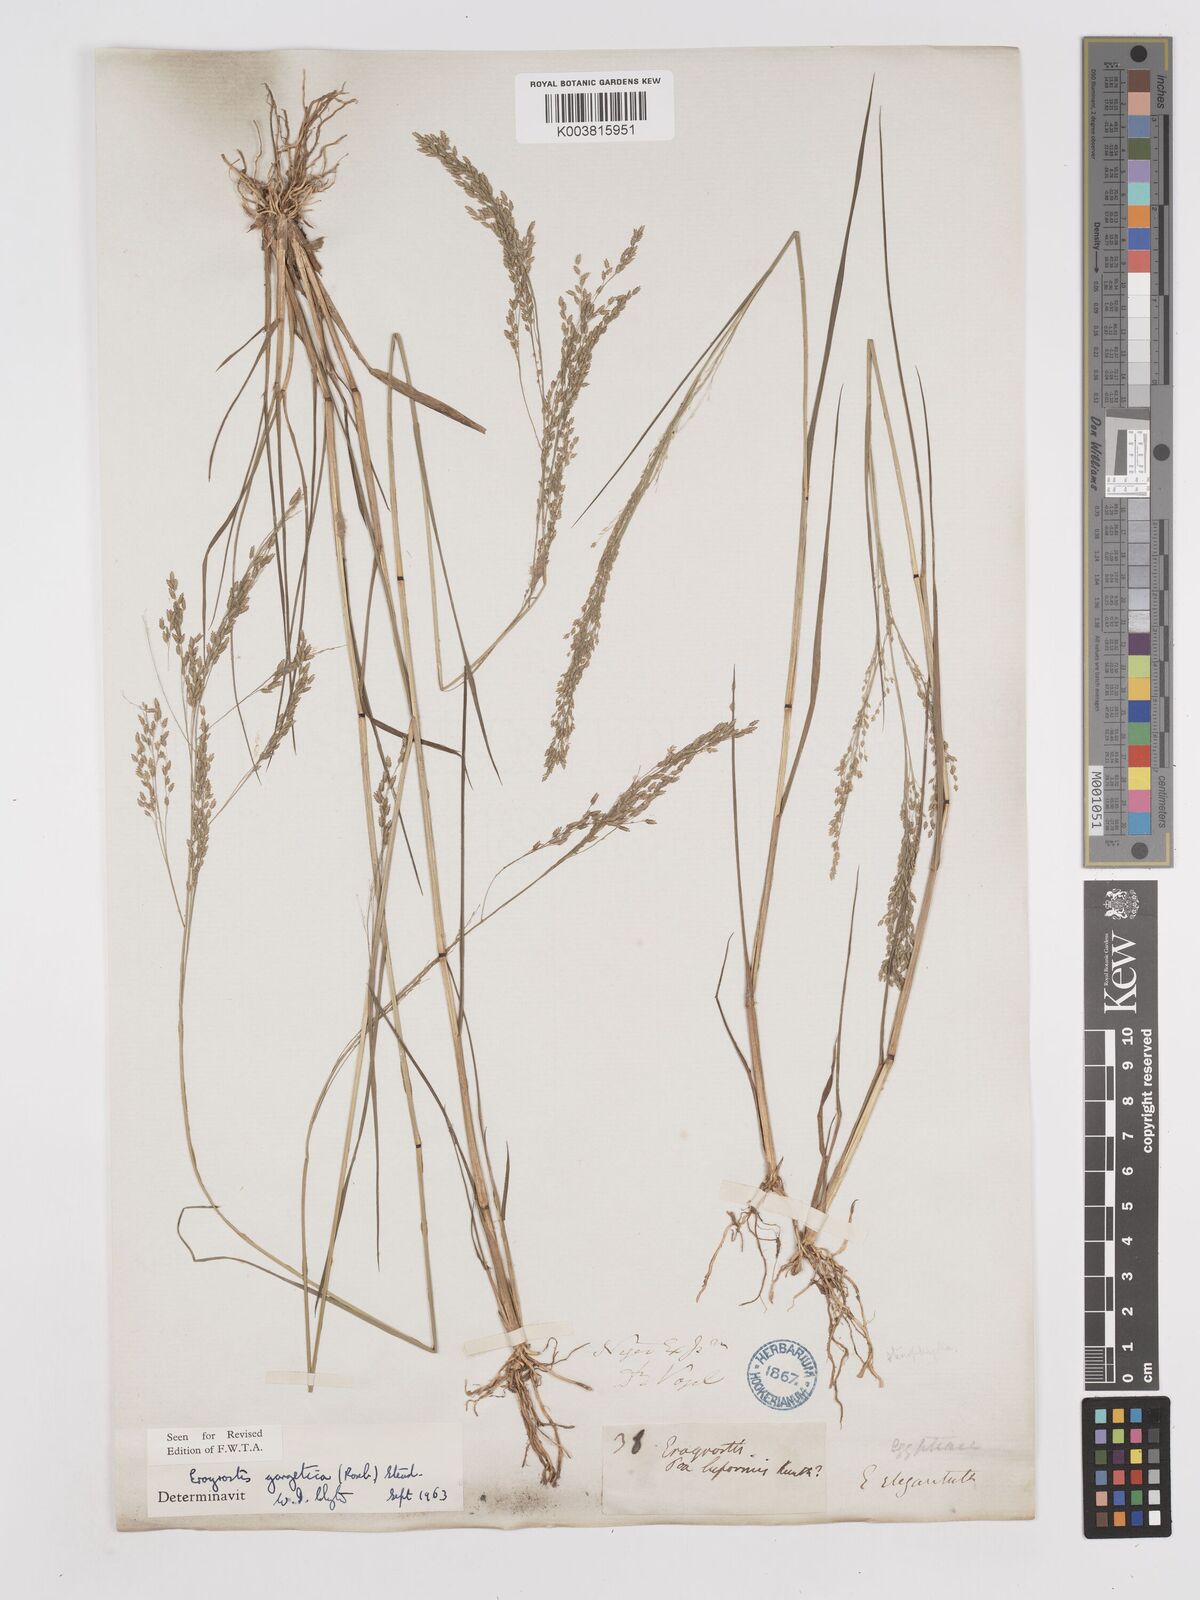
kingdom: Plantae
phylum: Tracheophyta
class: Liliopsida
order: Poales
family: Poaceae
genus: Eragrostis
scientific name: Eragrostis gangetica
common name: Slimflower lovegrass
